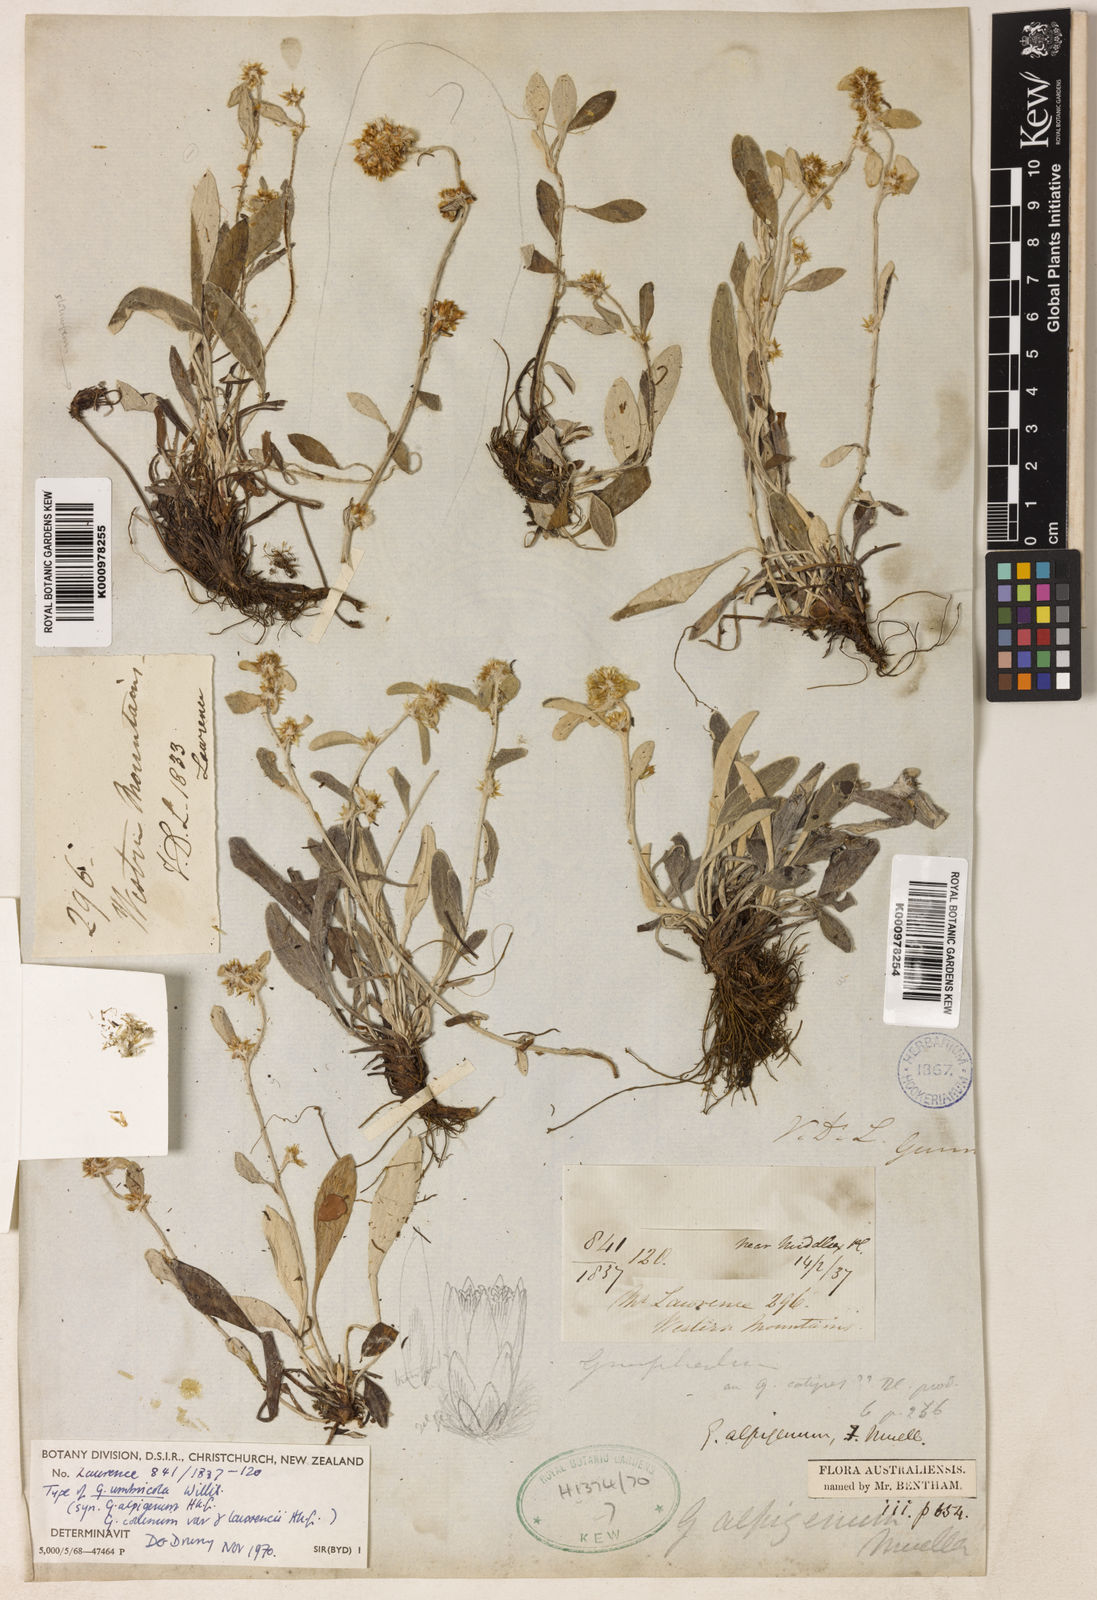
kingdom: Plantae
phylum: Tracheophyta
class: Magnoliopsida
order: Asterales
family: Asteraceae
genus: Euchiton
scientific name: Euchiton umbricola
